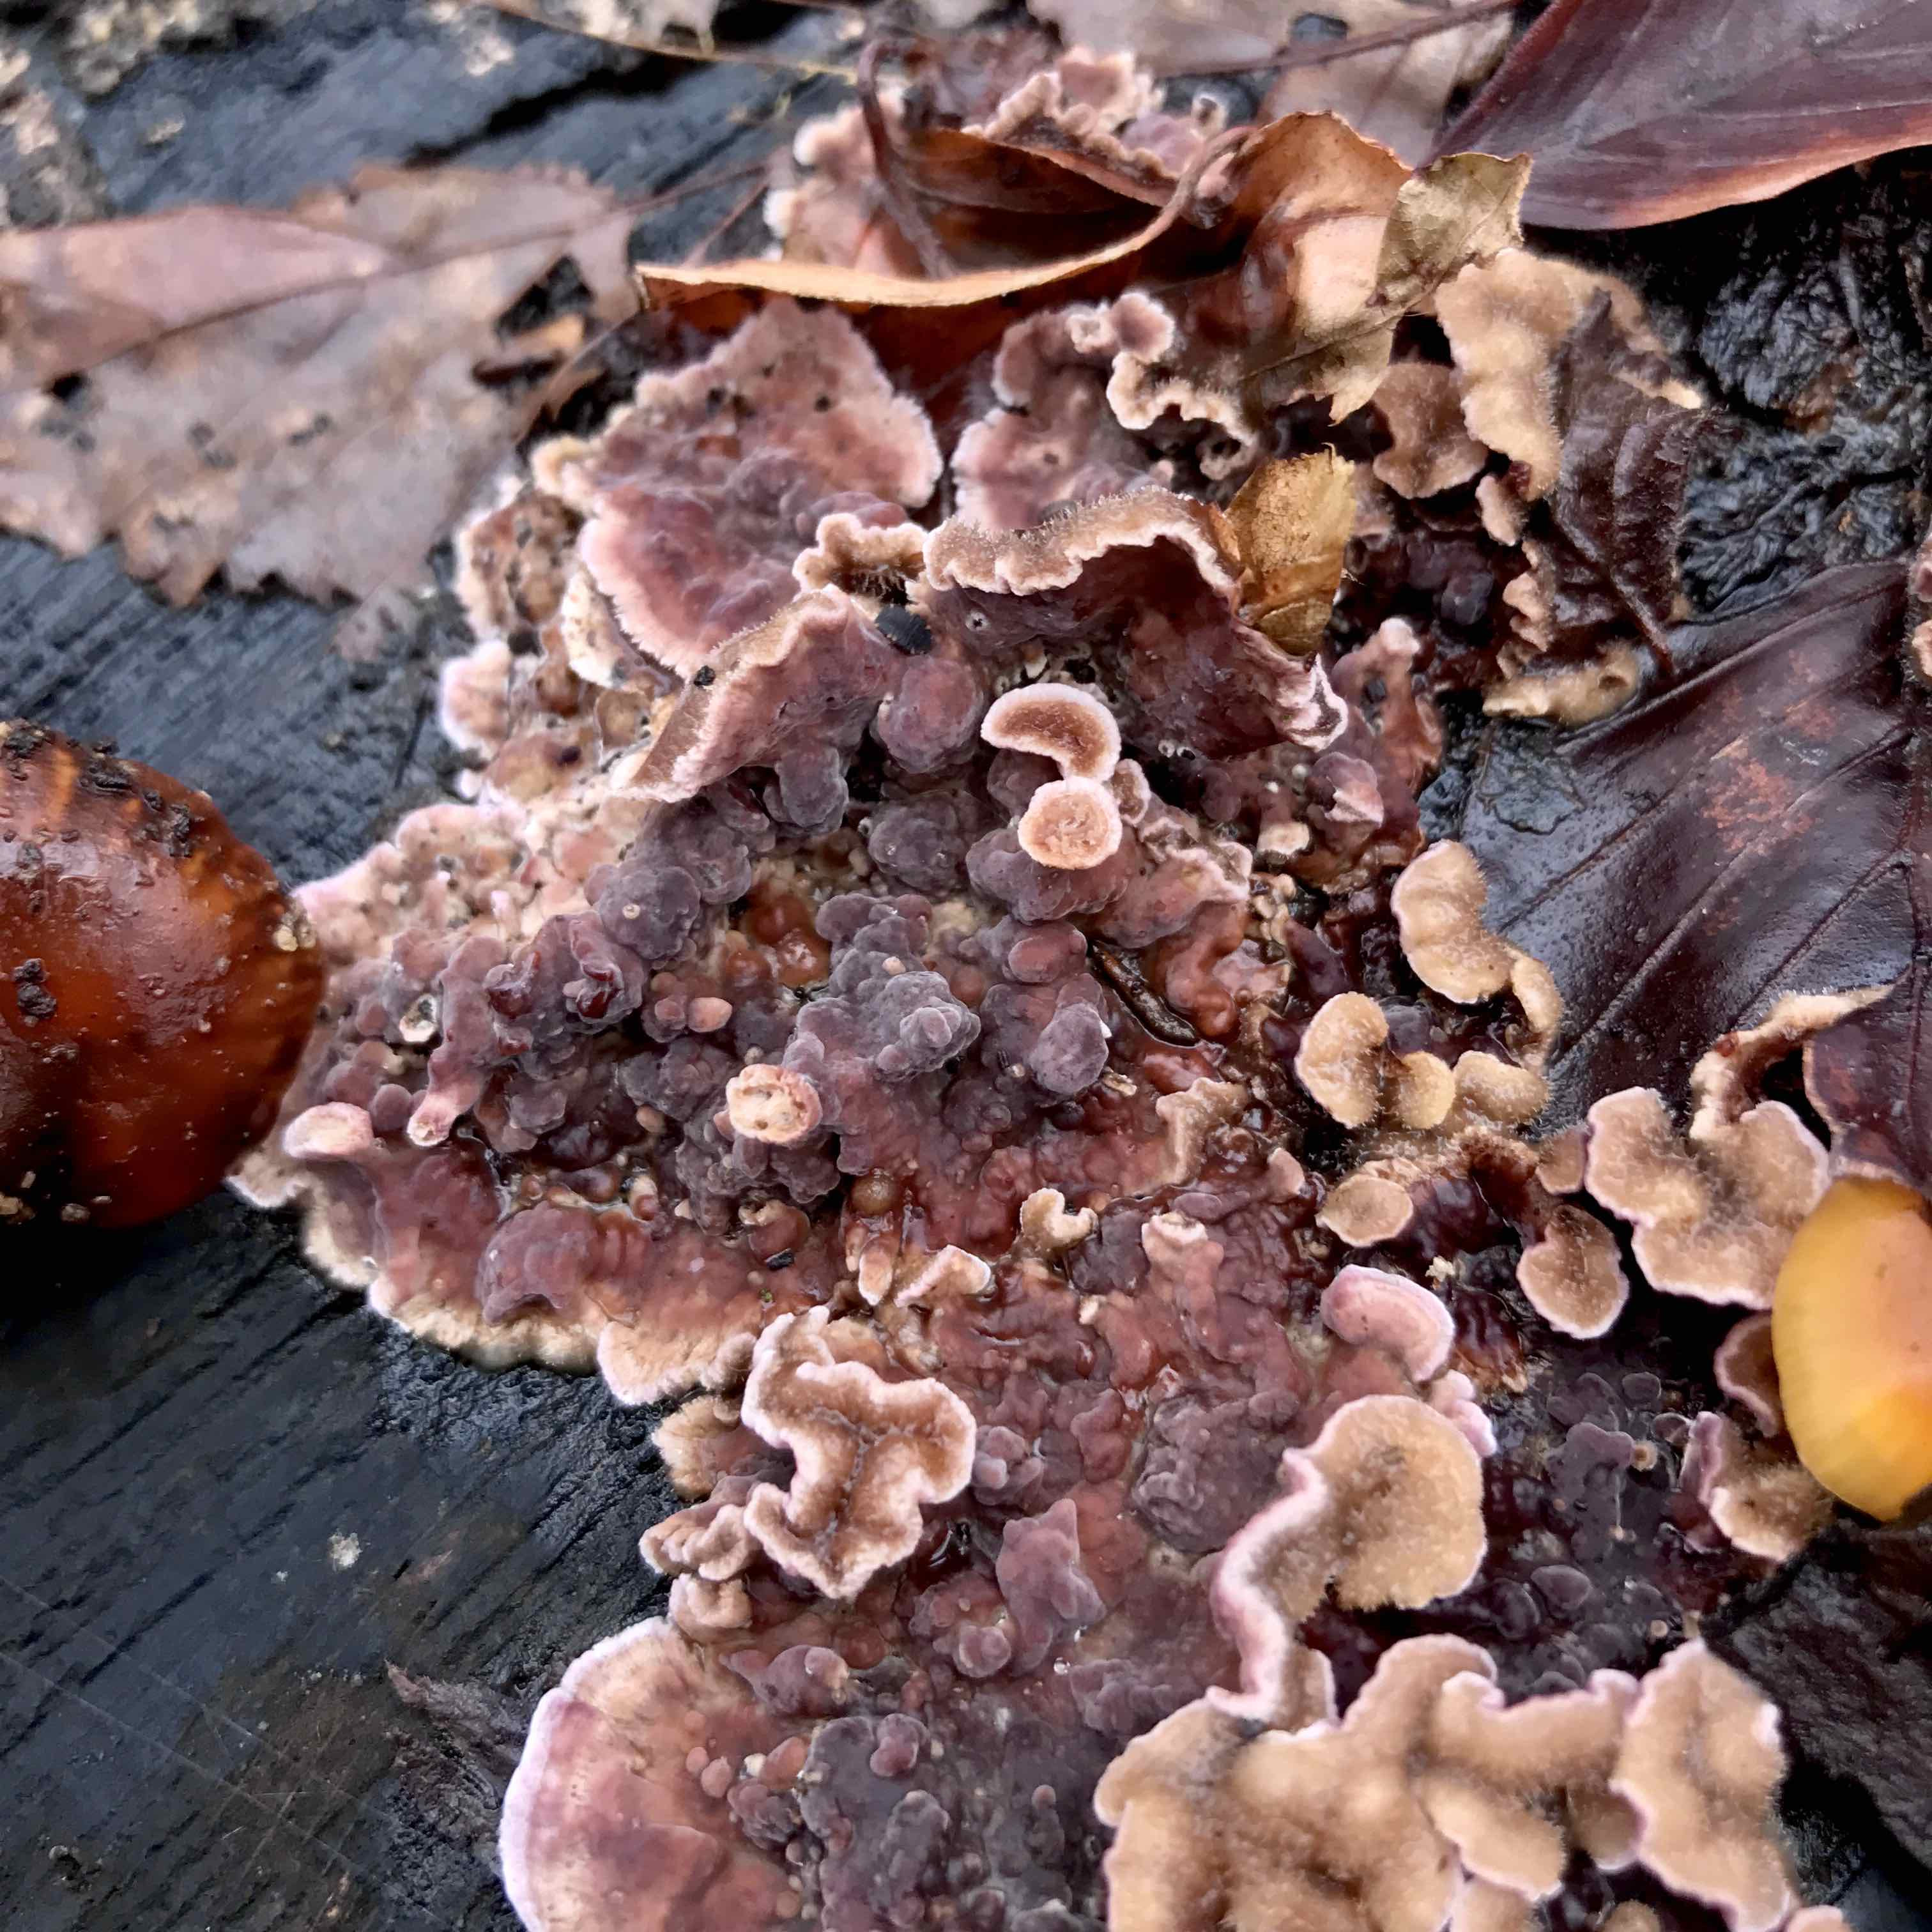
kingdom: Fungi
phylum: Basidiomycota
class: Agaricomycetes
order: Agaricales
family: Cyphellaceae
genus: Chondrostereum
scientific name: Chondrostereum purpureum
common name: purpurlædersvamp
